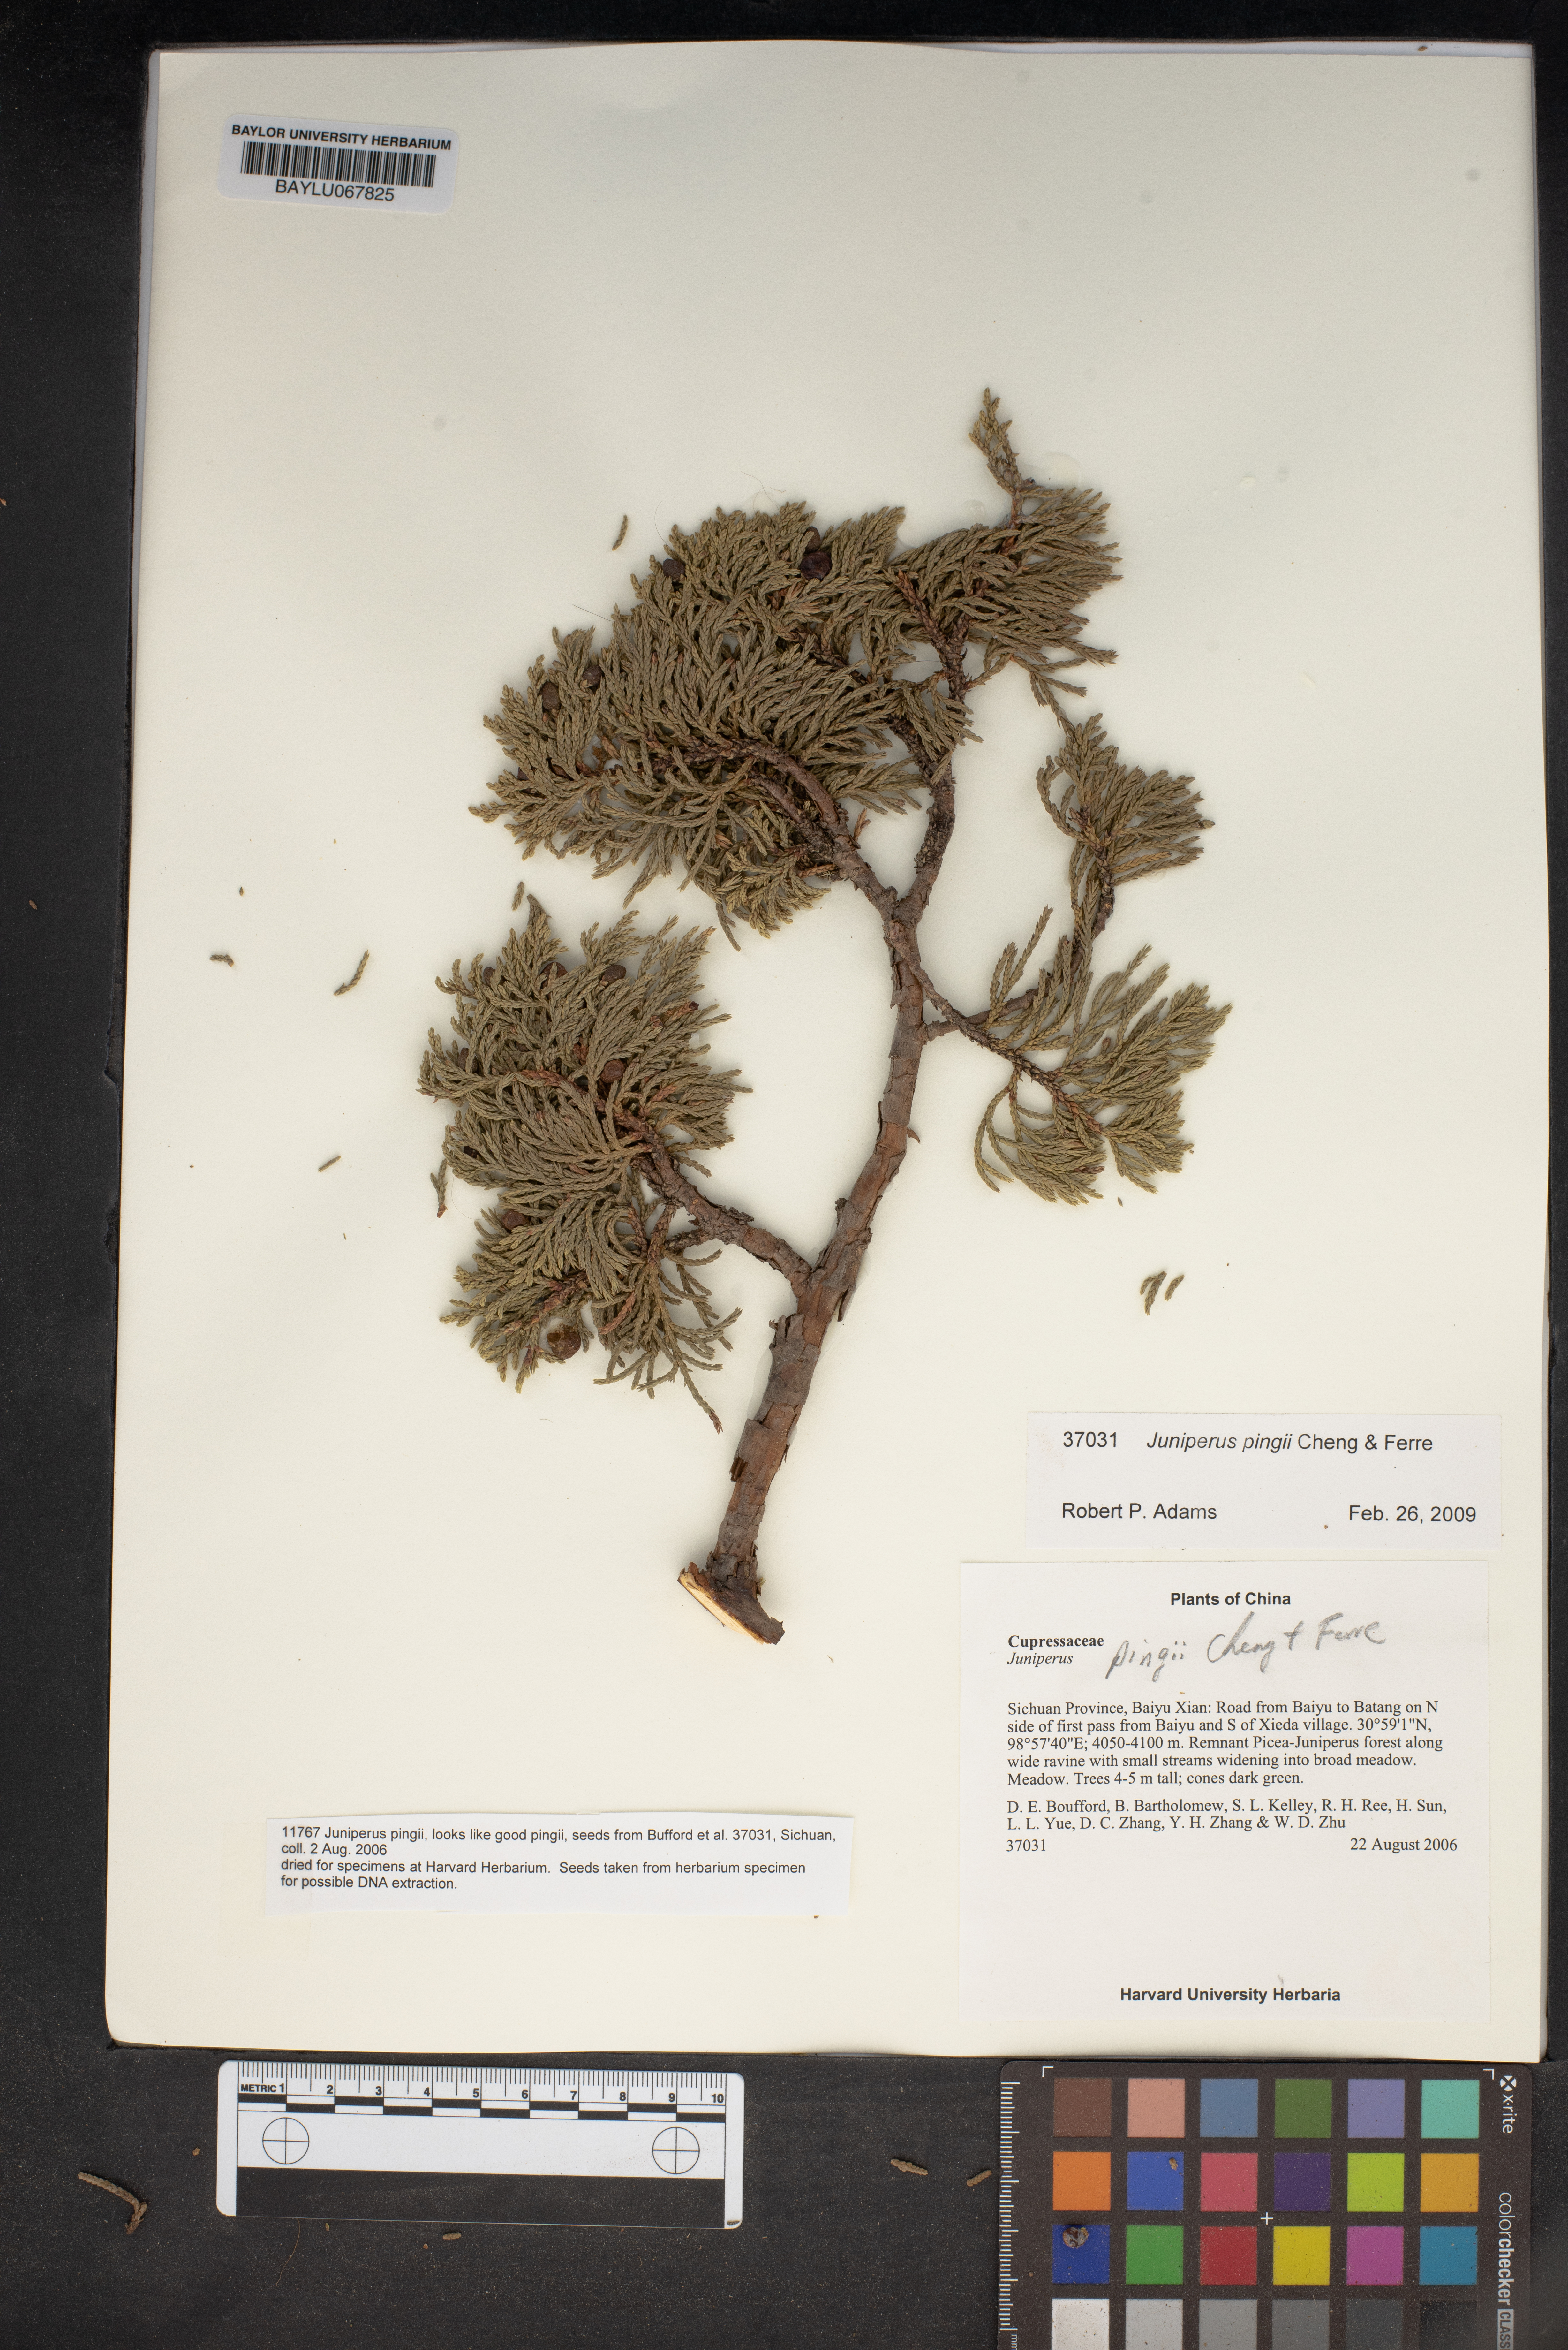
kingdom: Plantae
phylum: Tracheophyta
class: Pinopsida
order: Pinales
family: Cupressaceae
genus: Juniperus
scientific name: Juniperus pingii
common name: Ping's juniper
